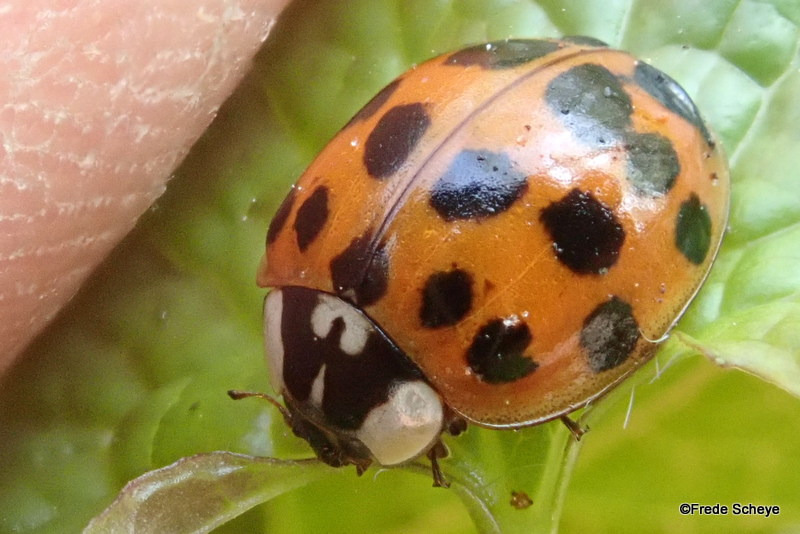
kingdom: Animalia
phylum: Arthropoda
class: Insecta
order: Coleoptera
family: Coccinellidae
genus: Harmonia
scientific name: Harmonia axyridis
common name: Harlekinmariehøne
